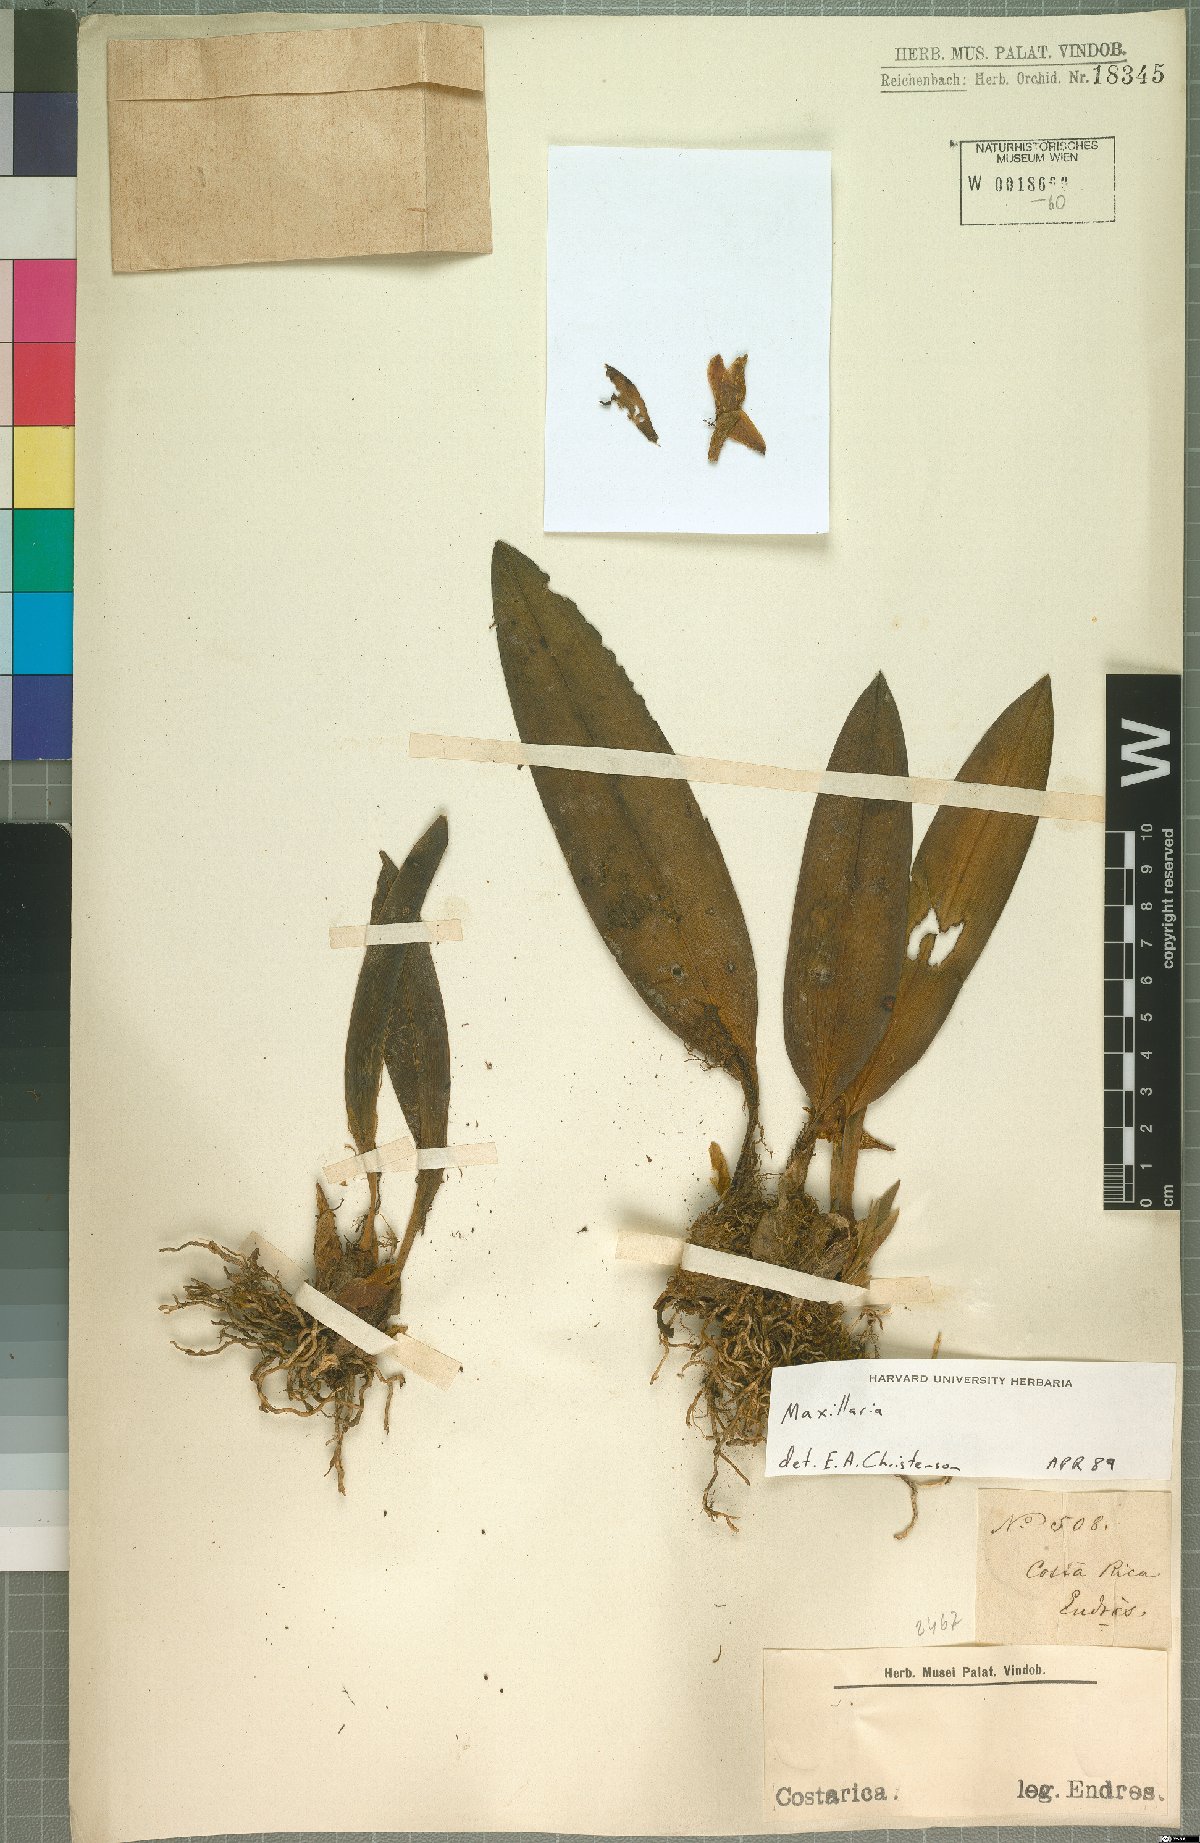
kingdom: Plantae
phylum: Tracheophyta
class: Liliopsida
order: Asparagales
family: Orchidaceae
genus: Maxillaria
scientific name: Maxillaria
